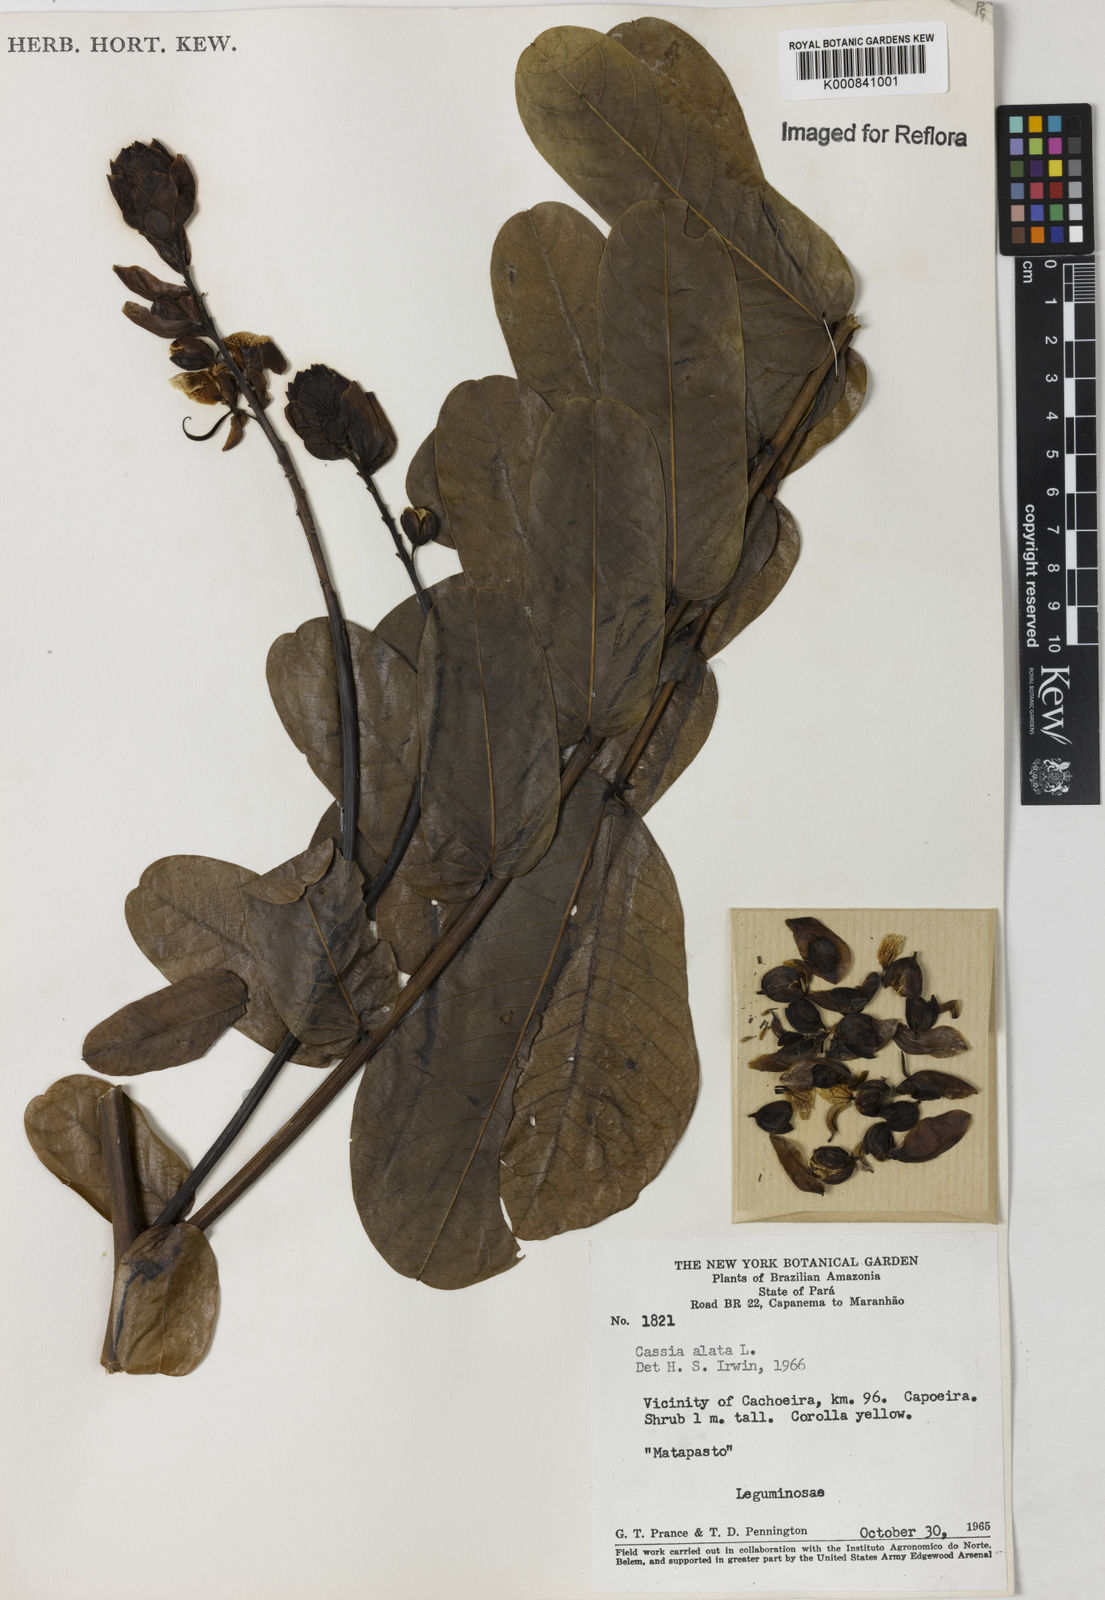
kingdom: Plantae
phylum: Tracheophyta
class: Magnoliopsida
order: Fabales
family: Fabaceae
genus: Senna
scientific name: Senna alata
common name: Emperor's candlesticks
